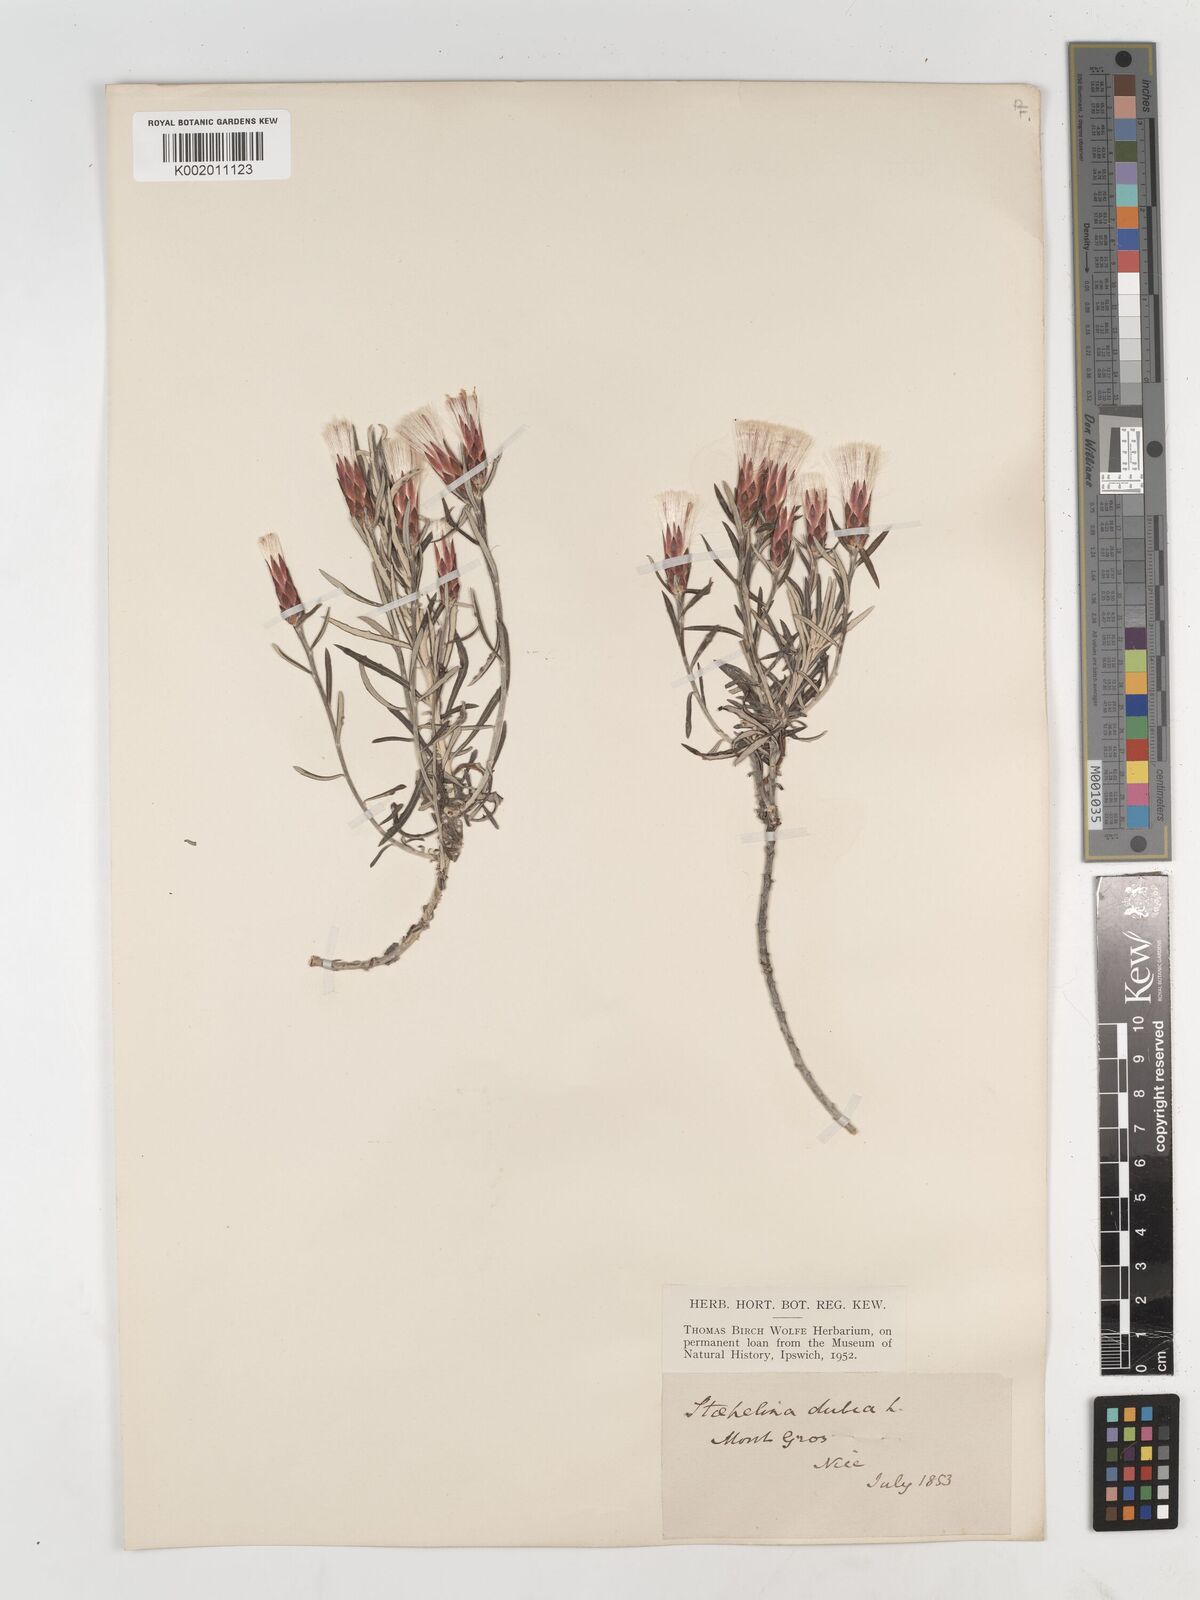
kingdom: Plantae
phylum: Tracheophyta
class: Magnoliopsida
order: Asterales
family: Asteraceae
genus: Staehelina
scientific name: Staehelina dubia
